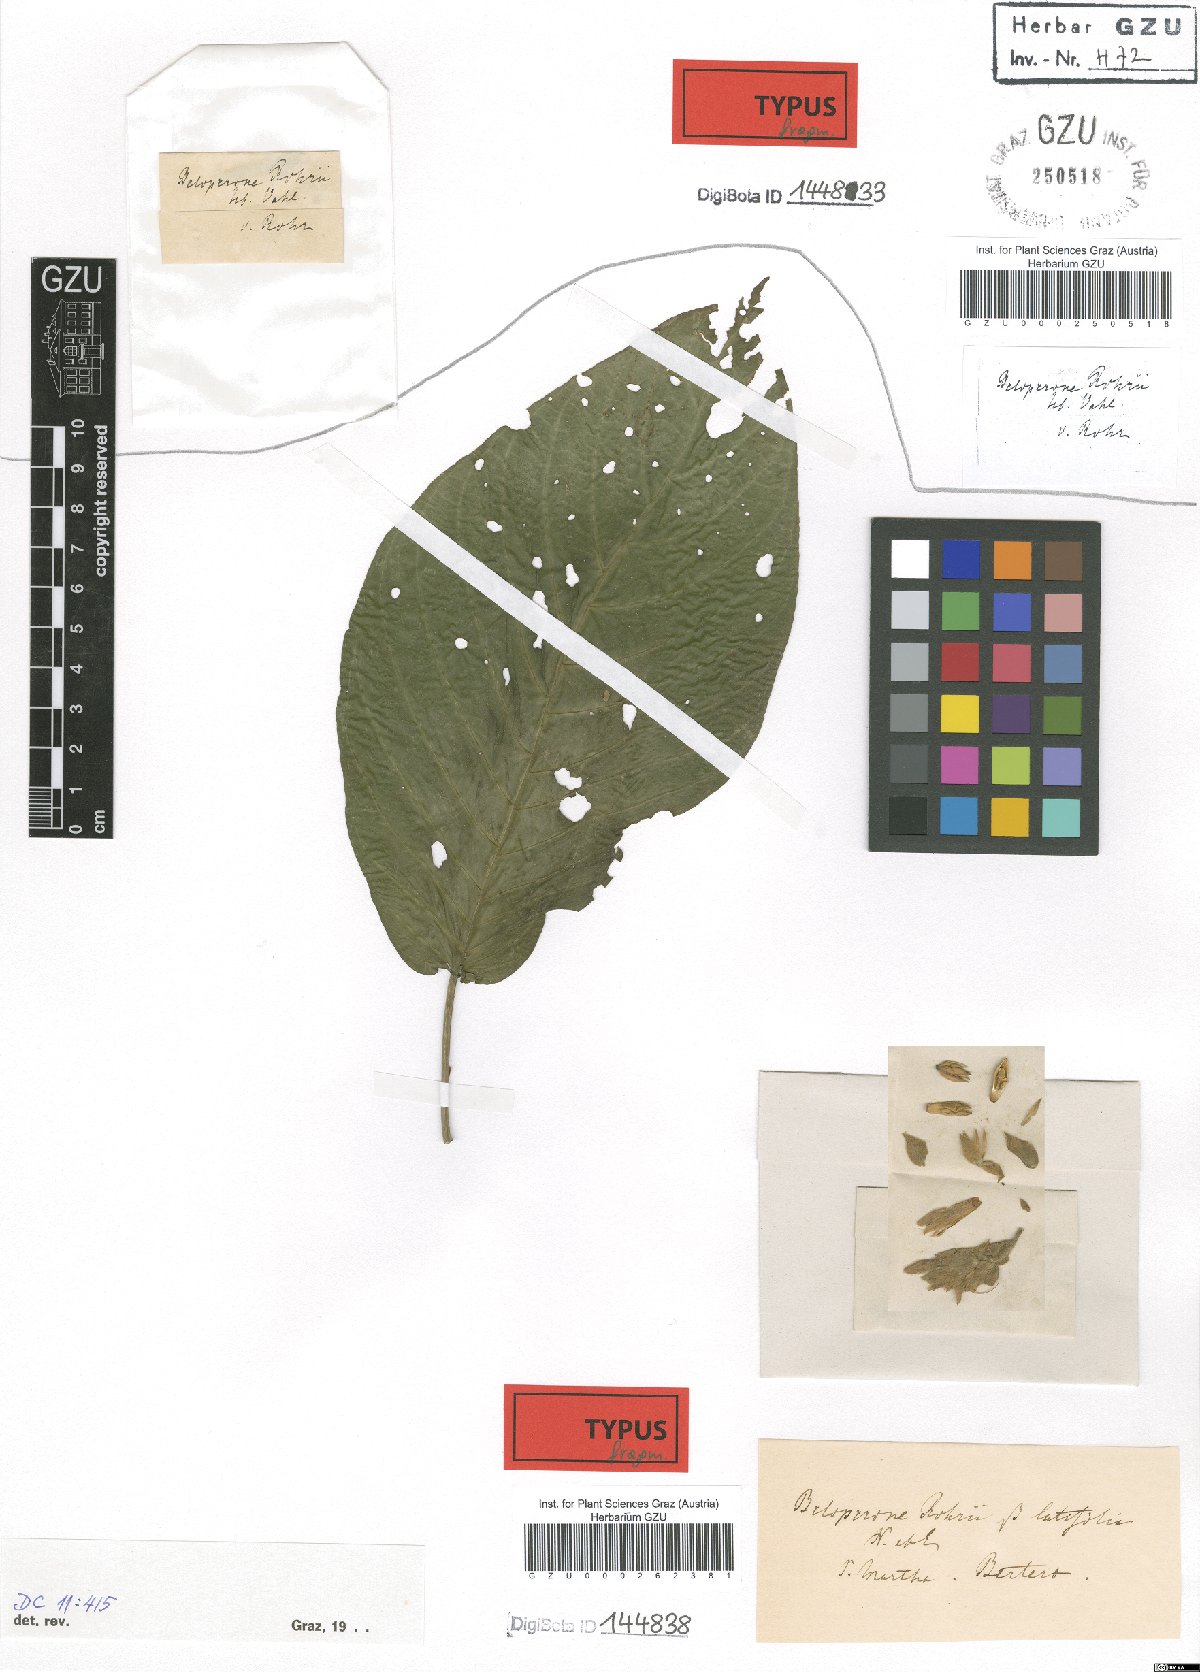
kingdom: Plantae
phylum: Tracheophyta
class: Magnoliopsida
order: Lamiales
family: Acanthaceae
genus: Justicia
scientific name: Justicia rohrii
